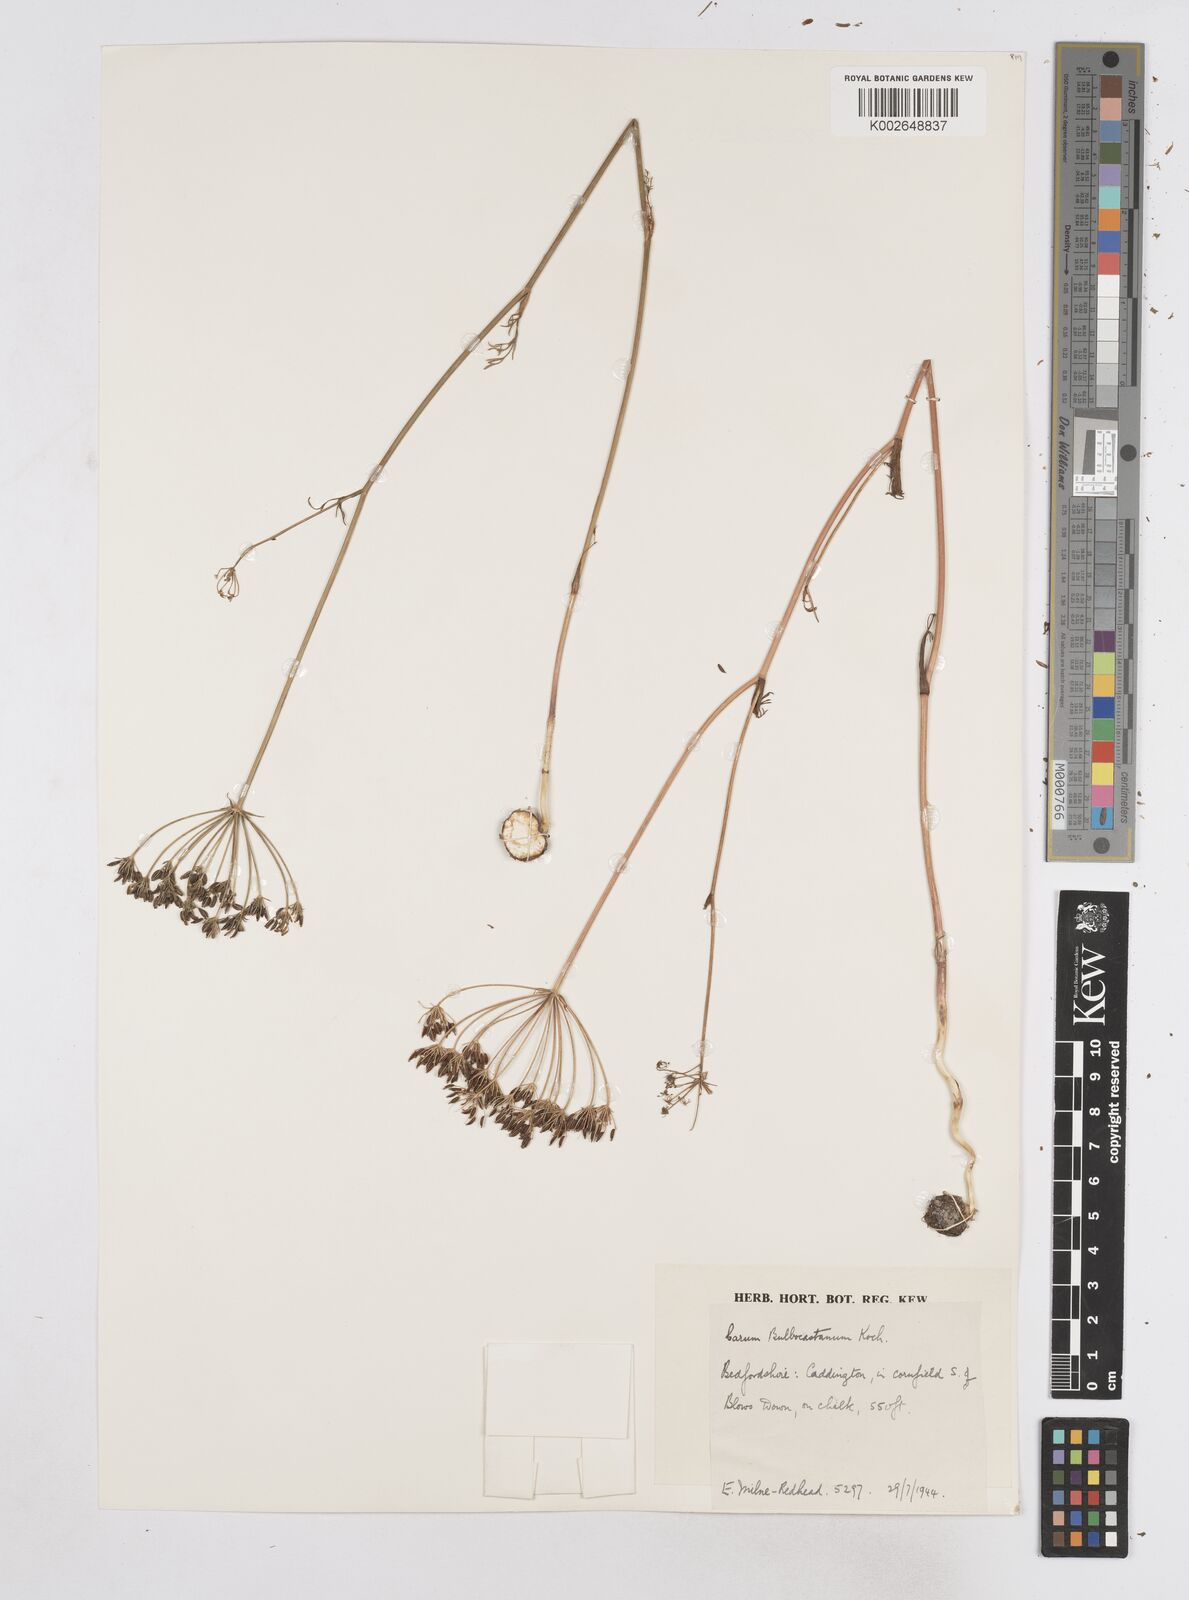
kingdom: Plantae
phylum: Tracheophyta
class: Magnoliopsida
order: Apiales
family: Apiaceae
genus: Bunium
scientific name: Bunium bulbocastanum
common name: Great pignut
